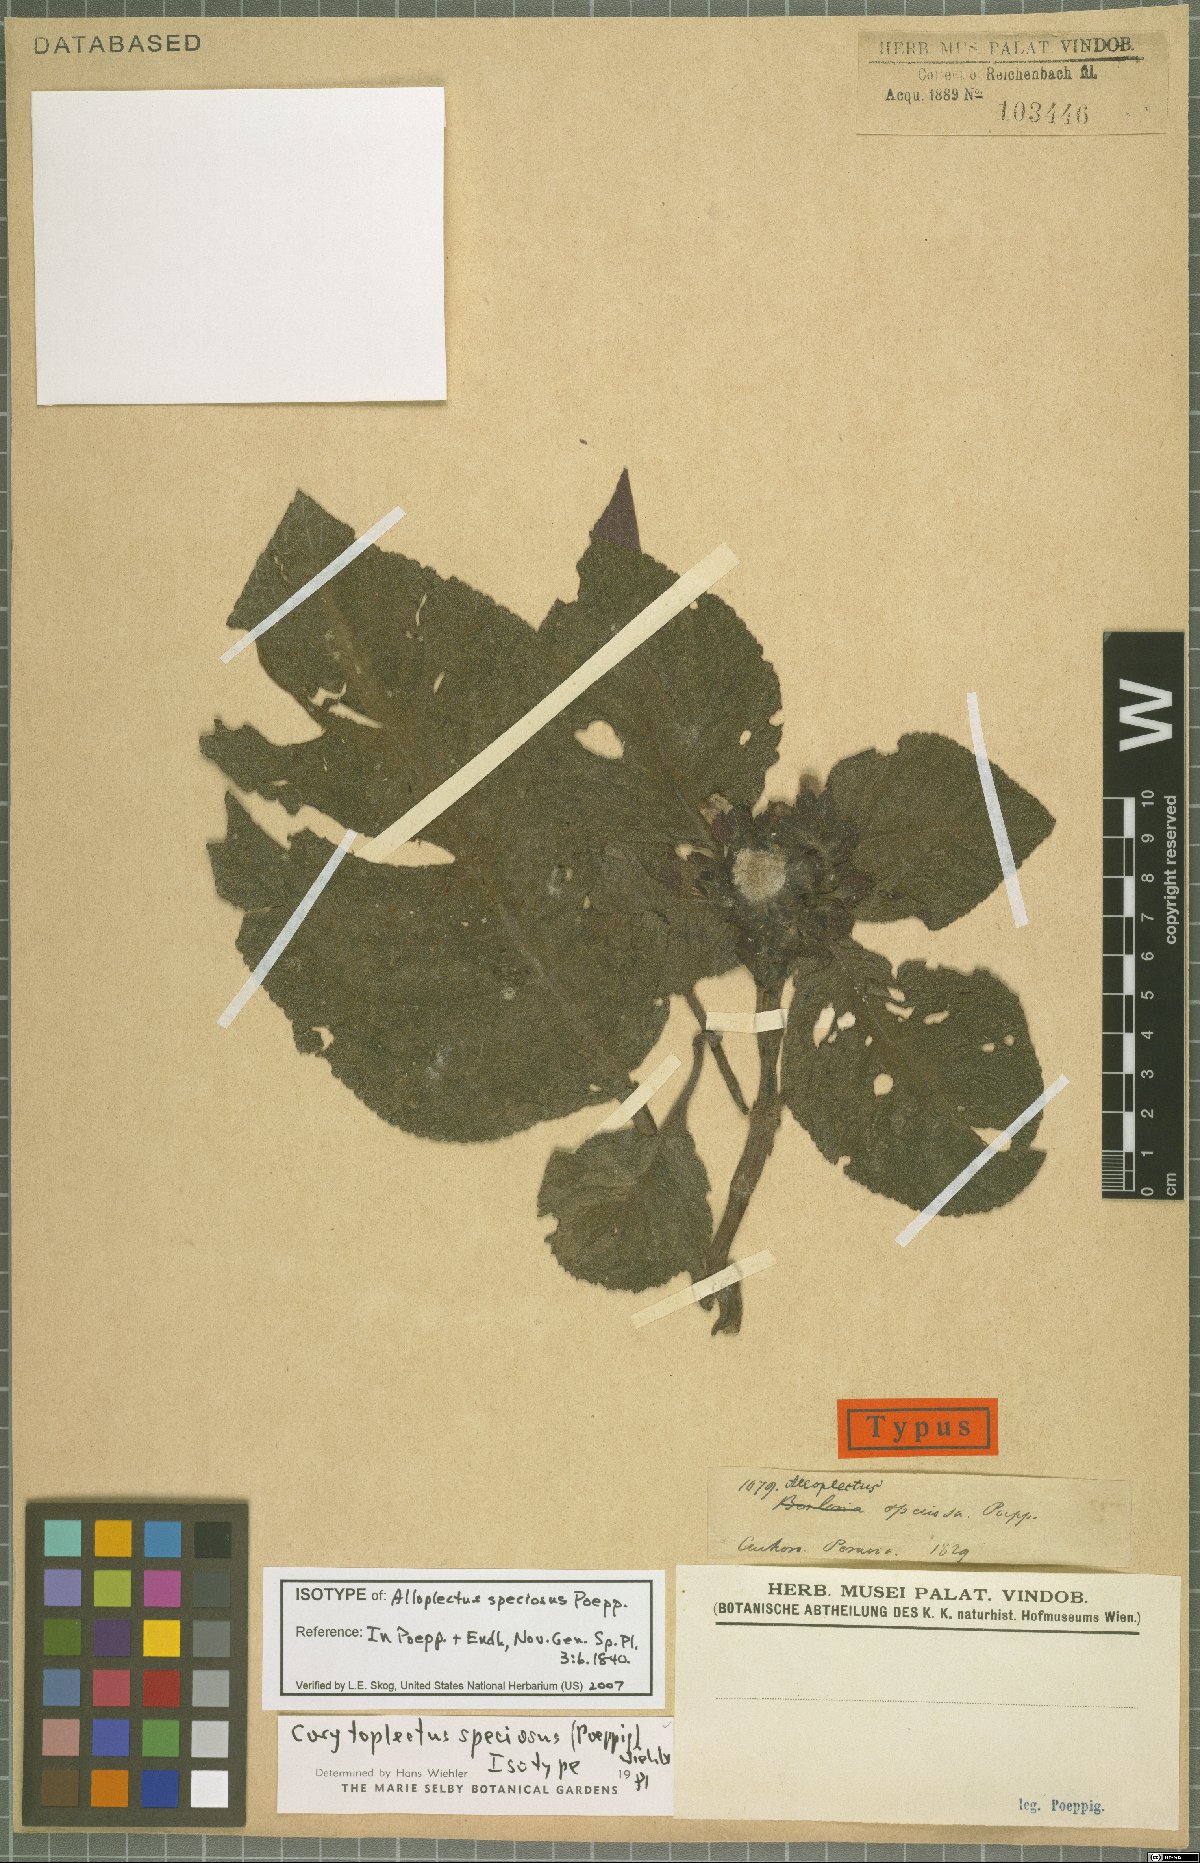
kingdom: Plantae
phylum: Tracheophyta
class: Magnoliopsida
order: Lamiales
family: Gesneriaceae
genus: Corytoplectus
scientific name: Corytoplectus speciosus
